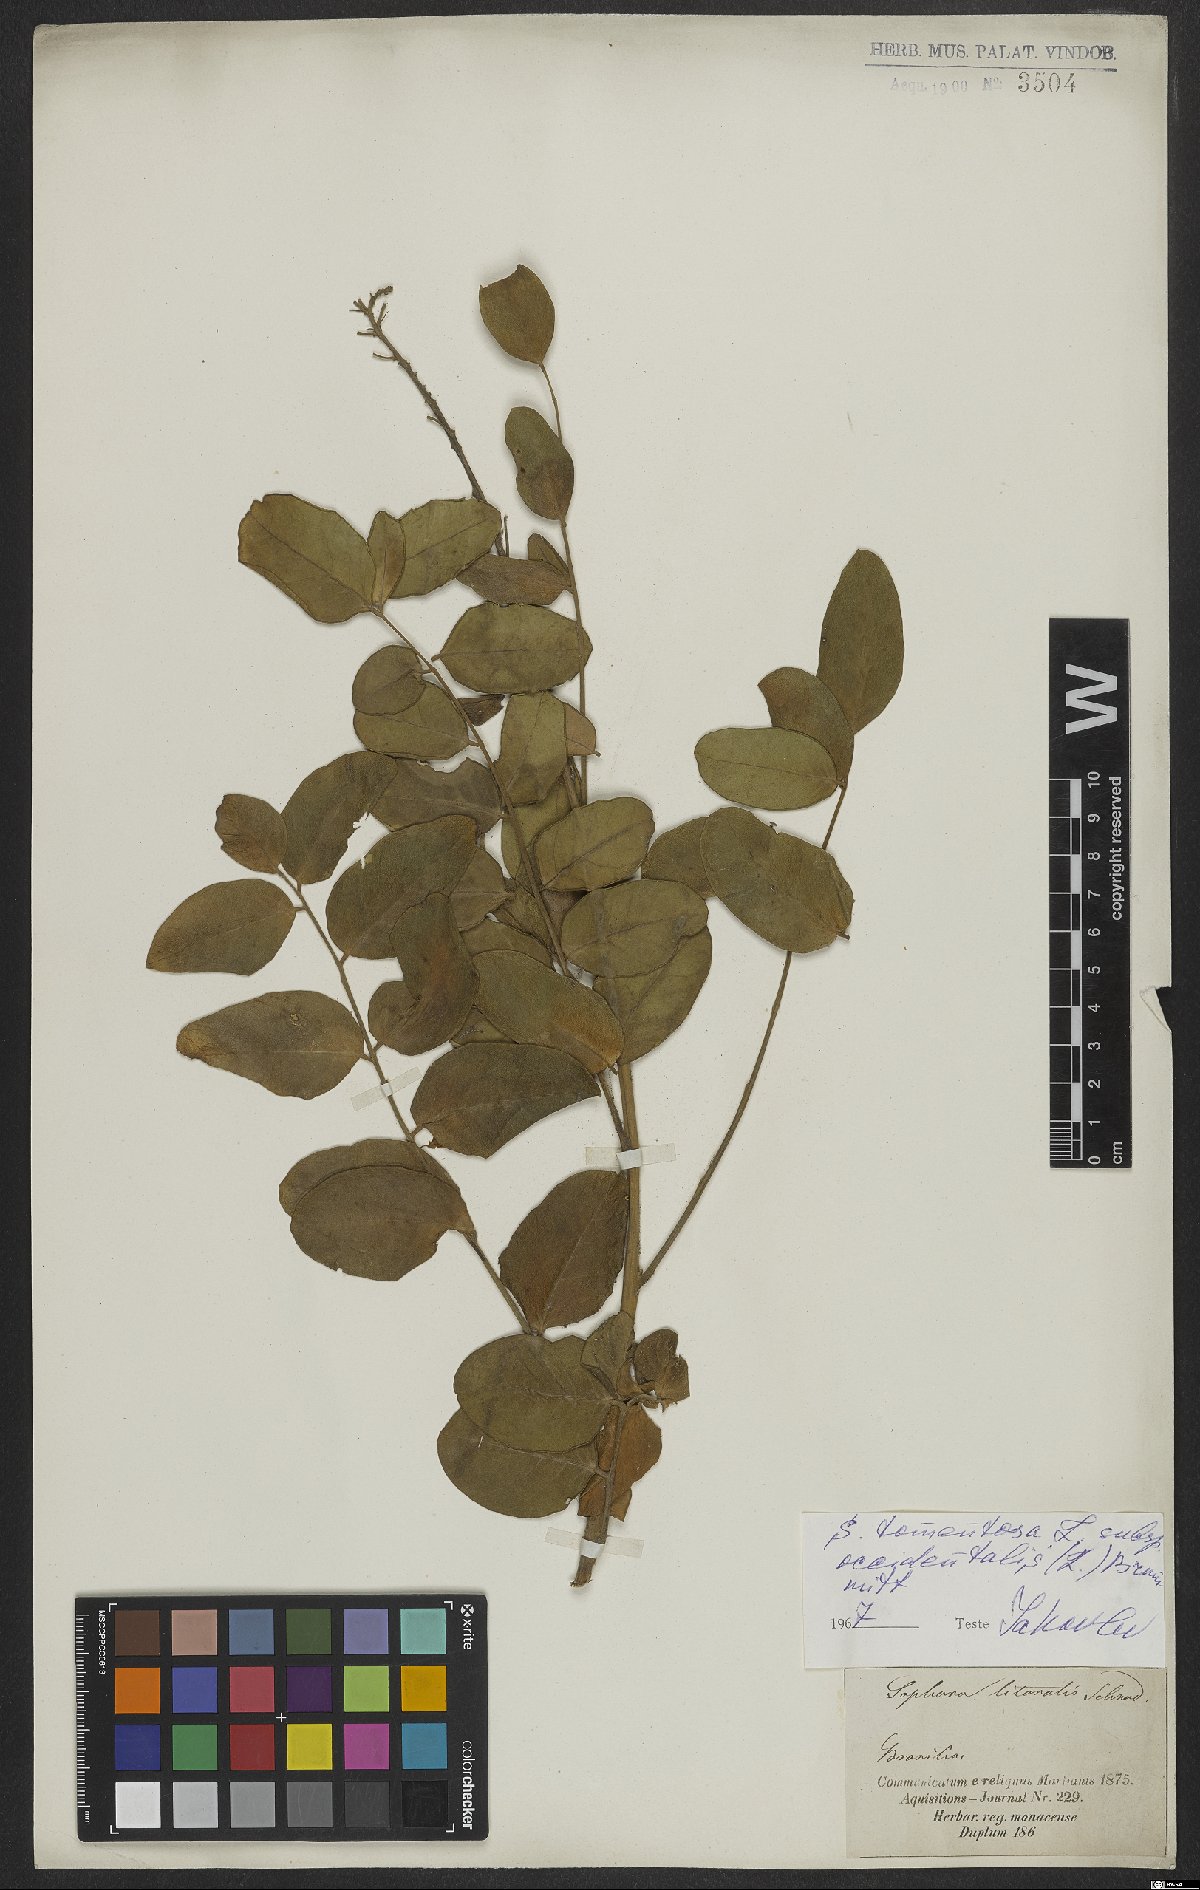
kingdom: Plantae
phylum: Tracheophyta
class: Magnoliopsida
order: Fabales
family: Fabaceae
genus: Sophora
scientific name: Sophora tomentosa
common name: Yellow necklacepod
